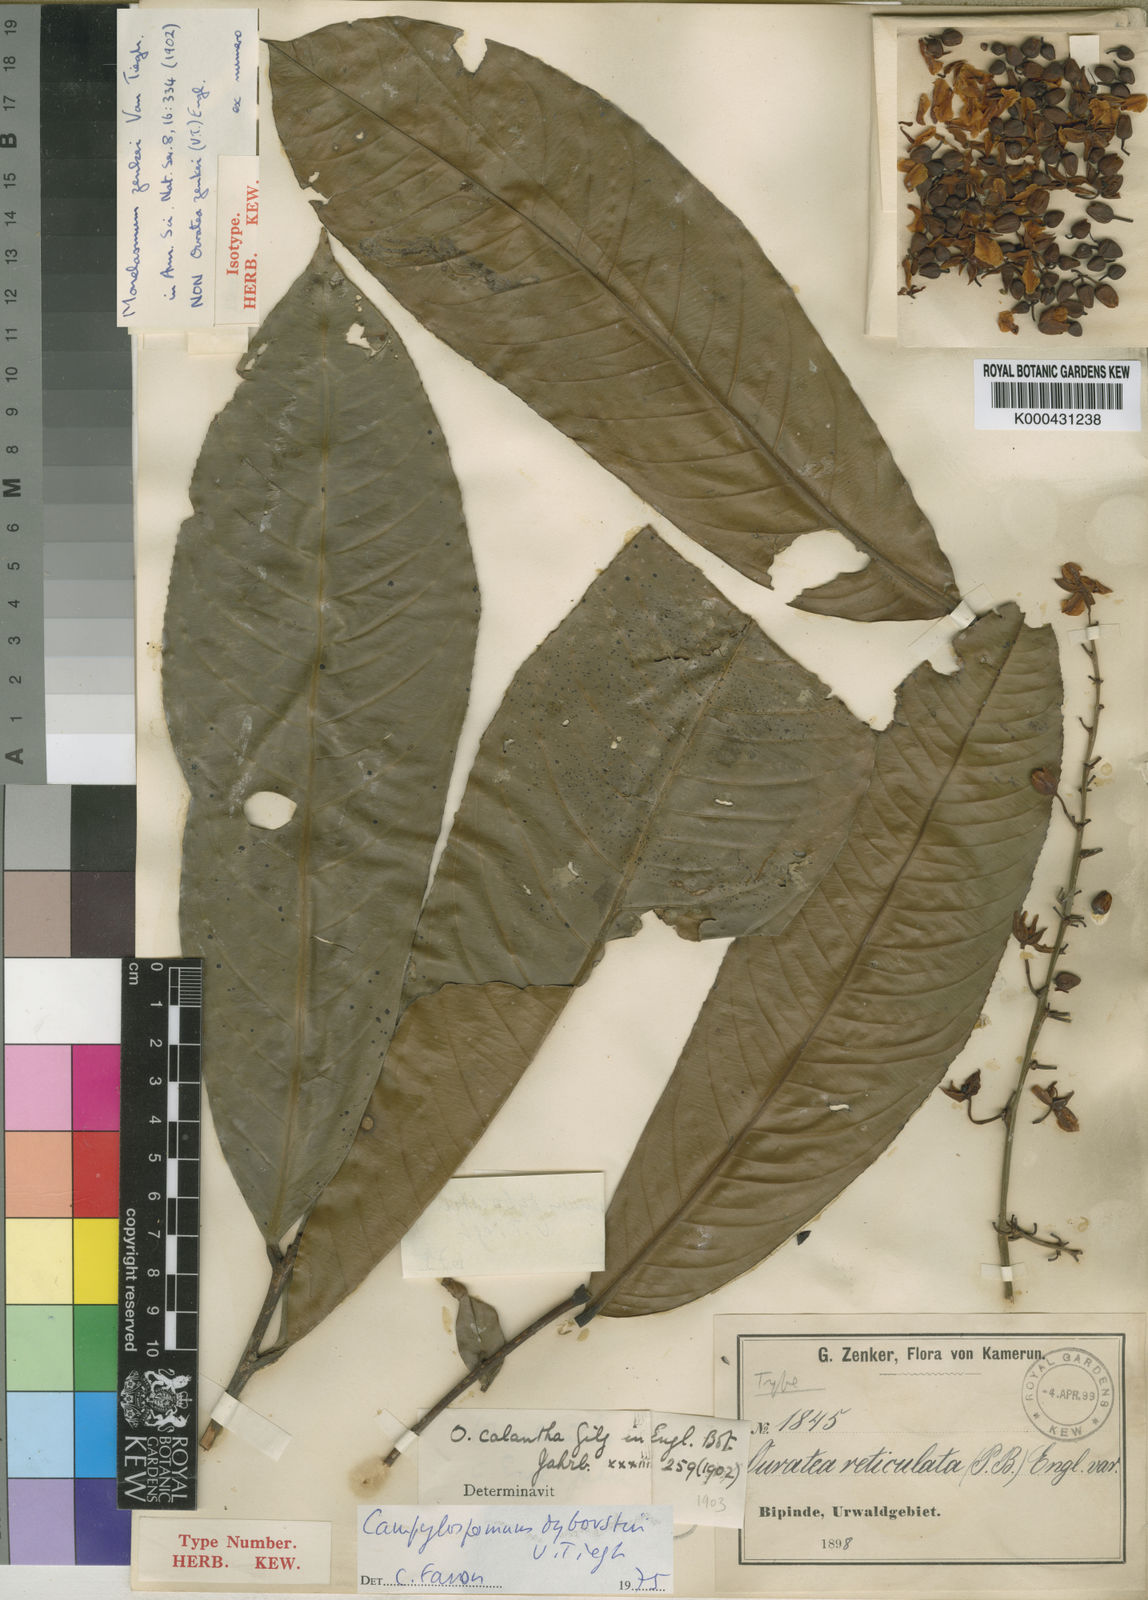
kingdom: Plantae
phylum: Tracheophyta
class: Magnoliopsida
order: Malpighiales
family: Ochnaceae
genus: Campylospermum
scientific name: Campylospermum calanthum
